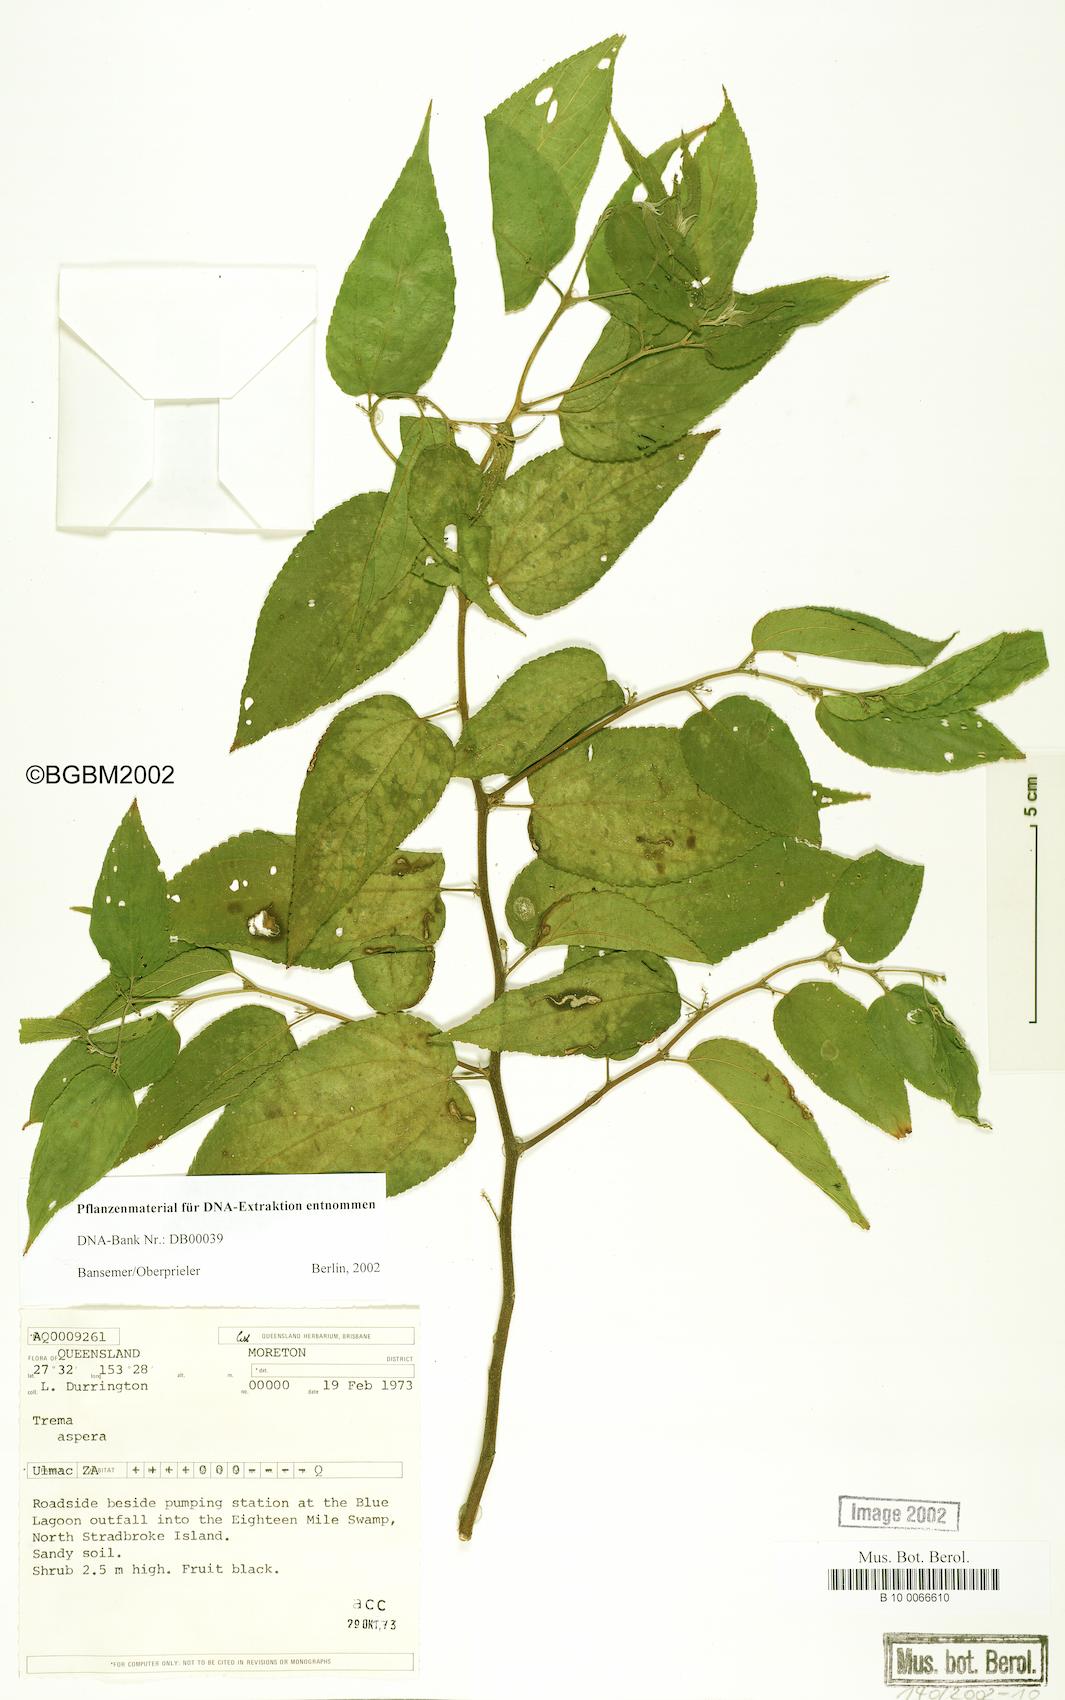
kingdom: Plantae
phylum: Tracheophyta
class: Magnoliopsida
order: Rosales
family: Cannabaceae
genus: Trema
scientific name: Trema tomentosum
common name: Peach-leaf-poisonbush
